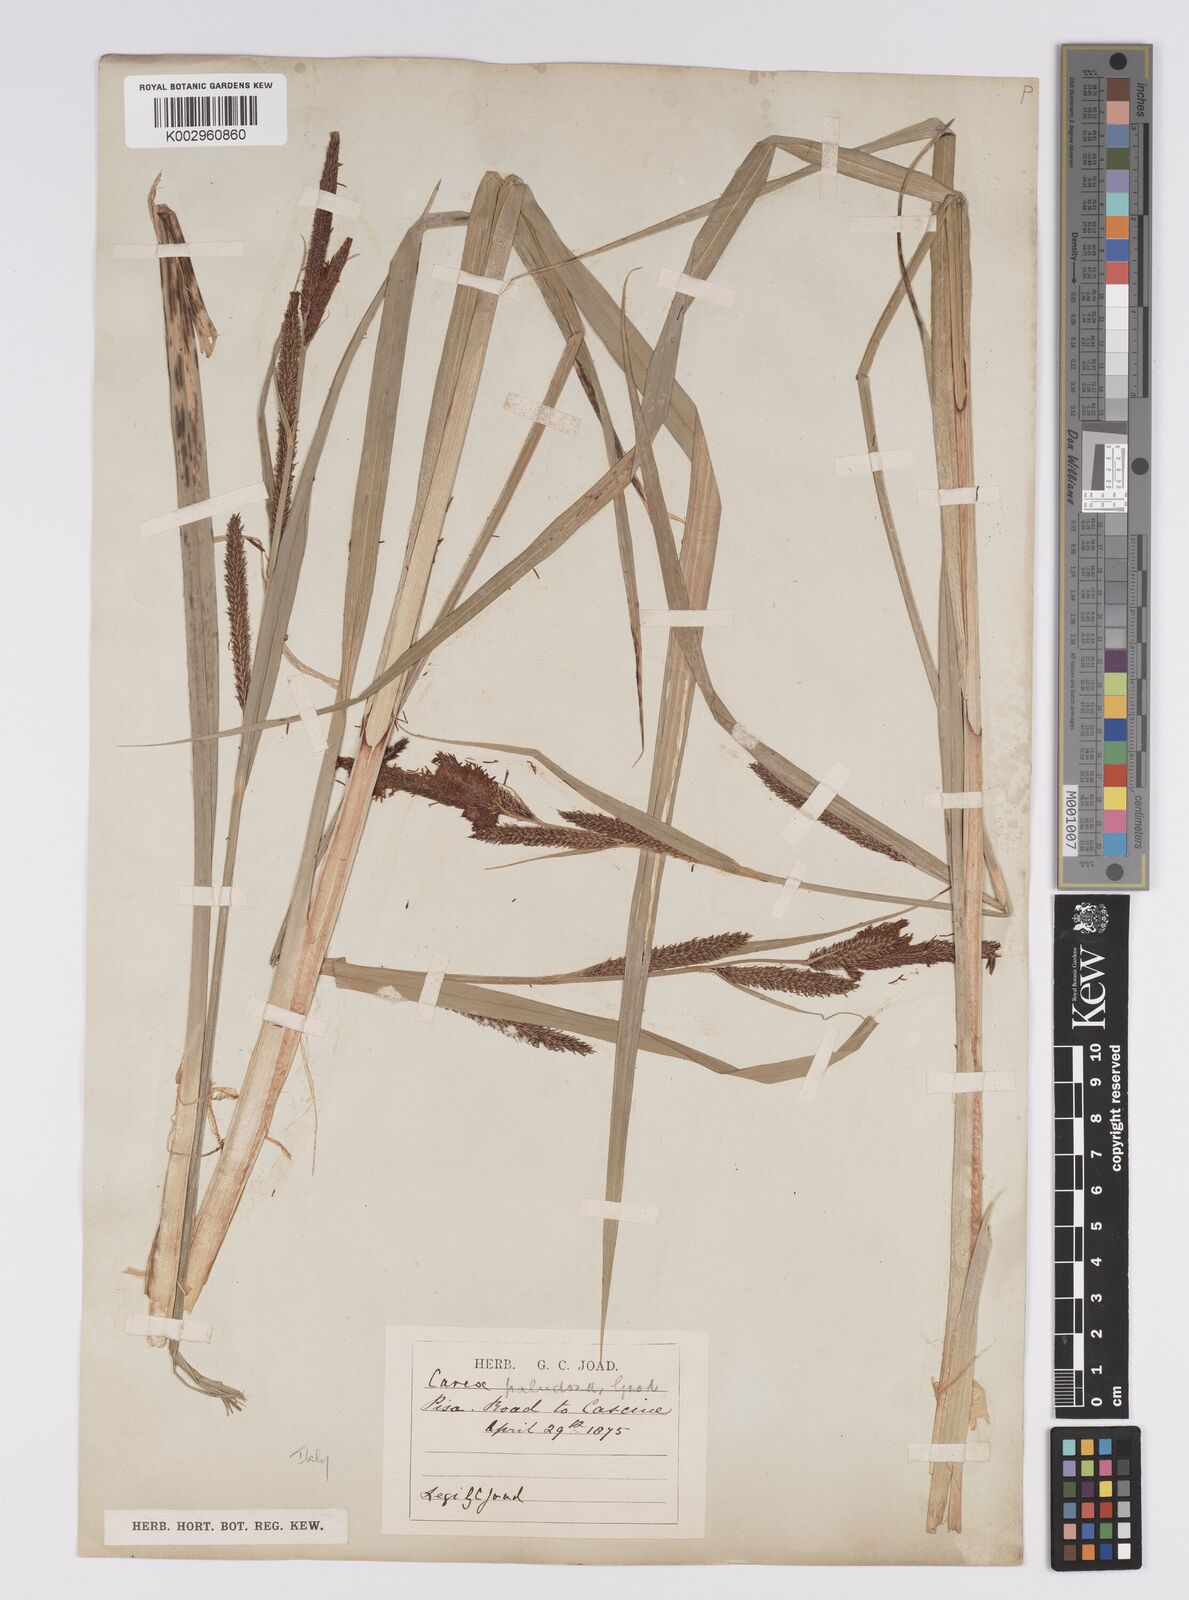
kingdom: Plantae
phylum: Tracheophyta
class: Liliopsida
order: Poales
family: Cyperaceae
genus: Carex
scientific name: Carex acutiformis
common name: Lesser pond-sedge
